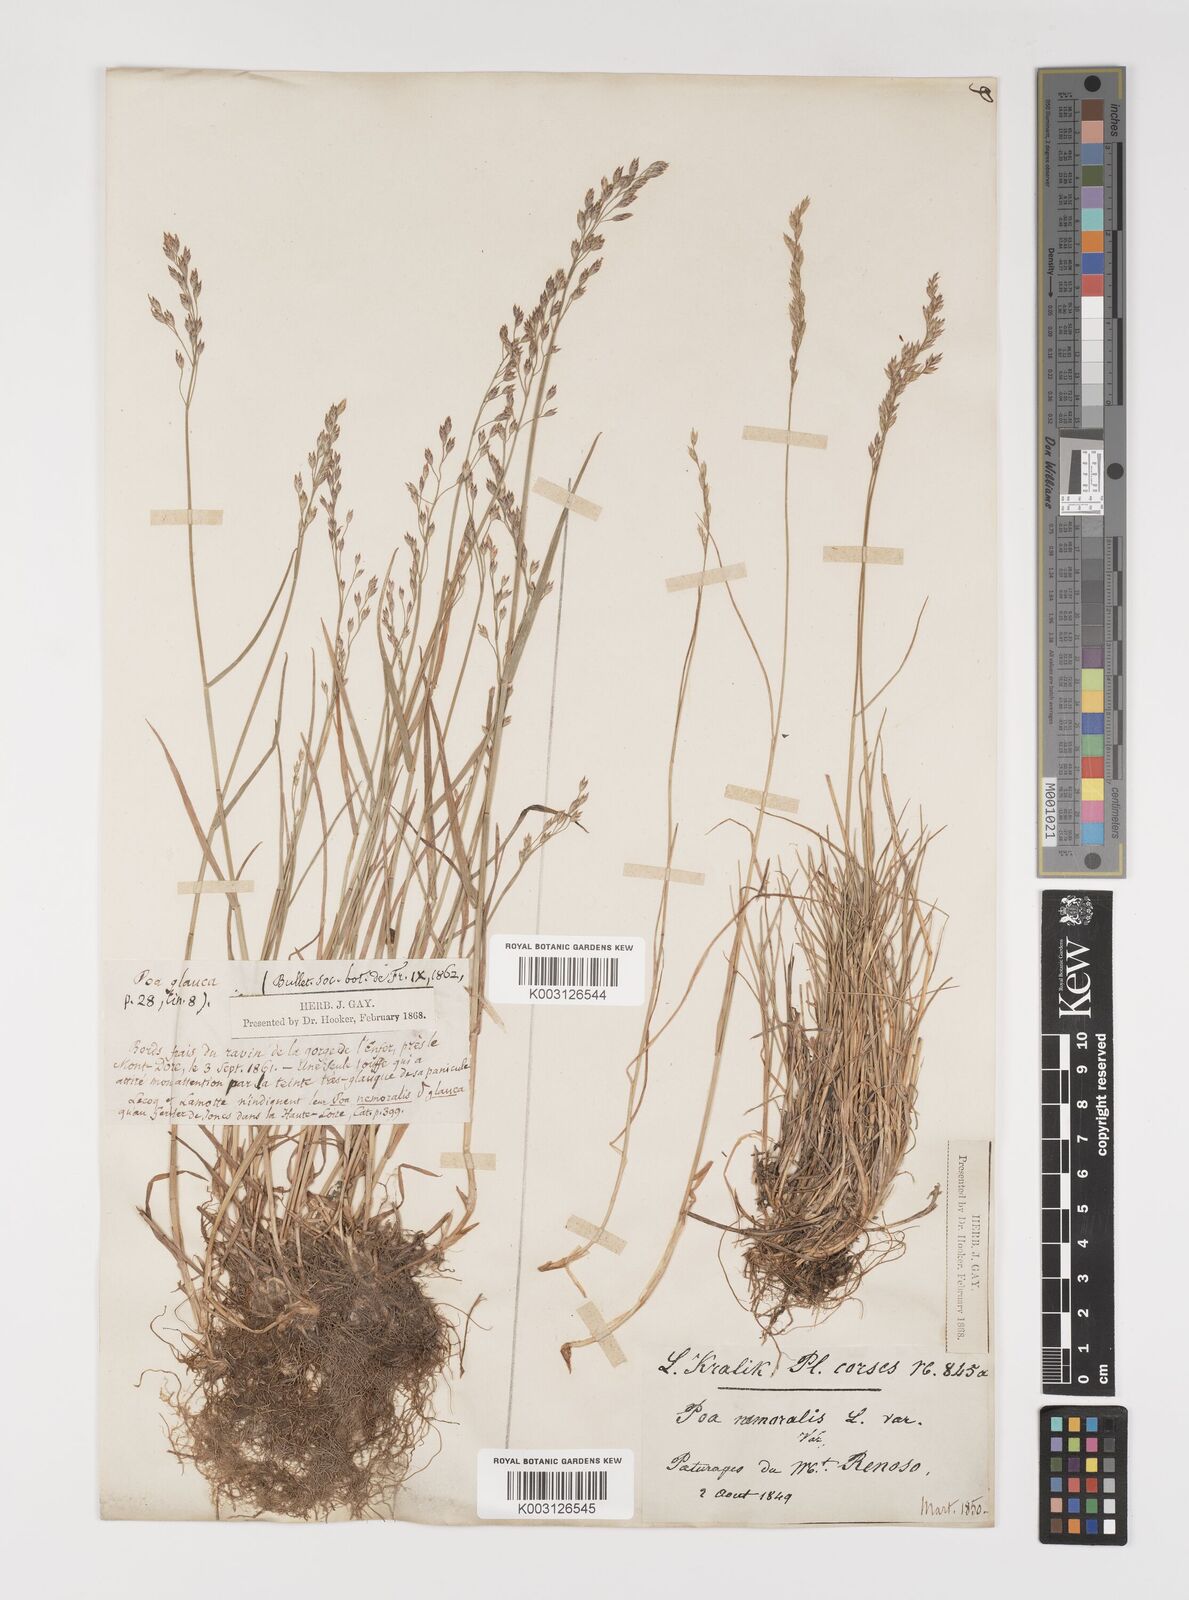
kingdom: Plantae
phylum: Tracheophyta
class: Liliopsida
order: Poales
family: Poaceae
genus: Poa
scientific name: Poa nemoralis
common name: Wood bluegrass
